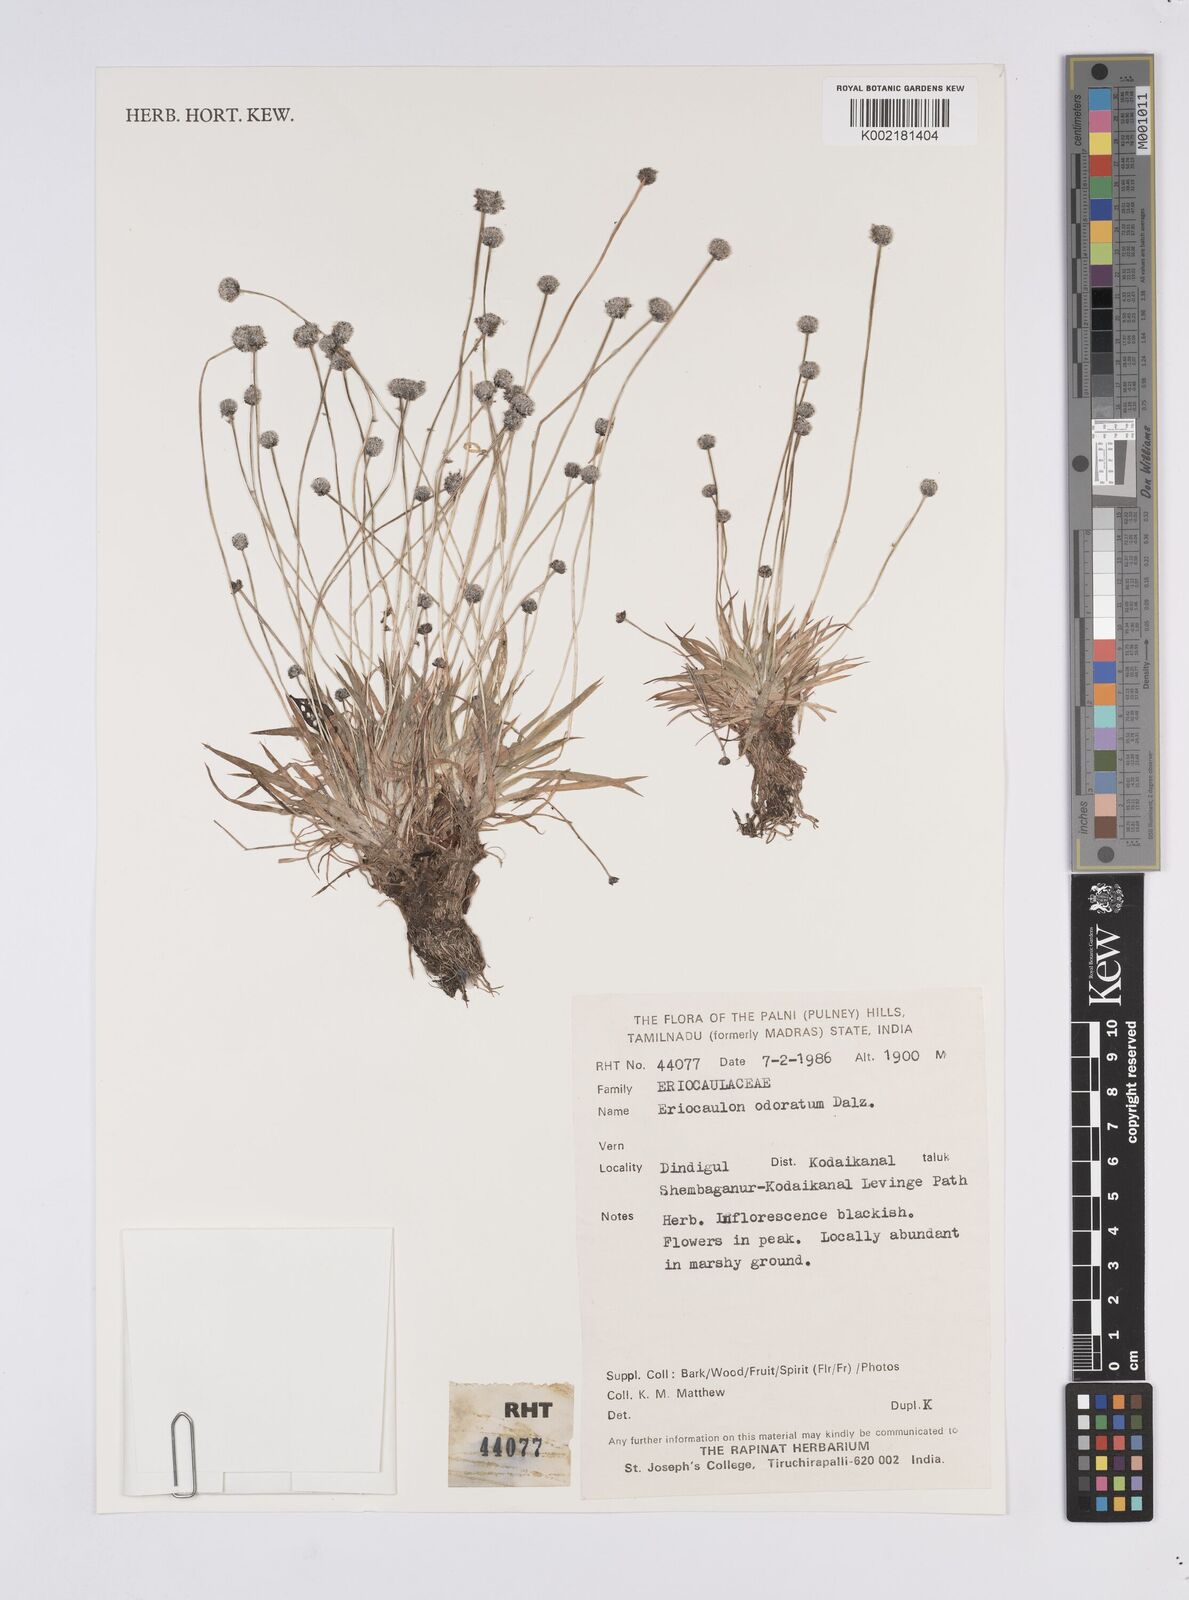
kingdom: Plantae
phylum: Tracheophyta
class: Liliopsida
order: Poales
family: Eriocaulaceae
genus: Eriocaulon
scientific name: Eriocaulon odoratum
